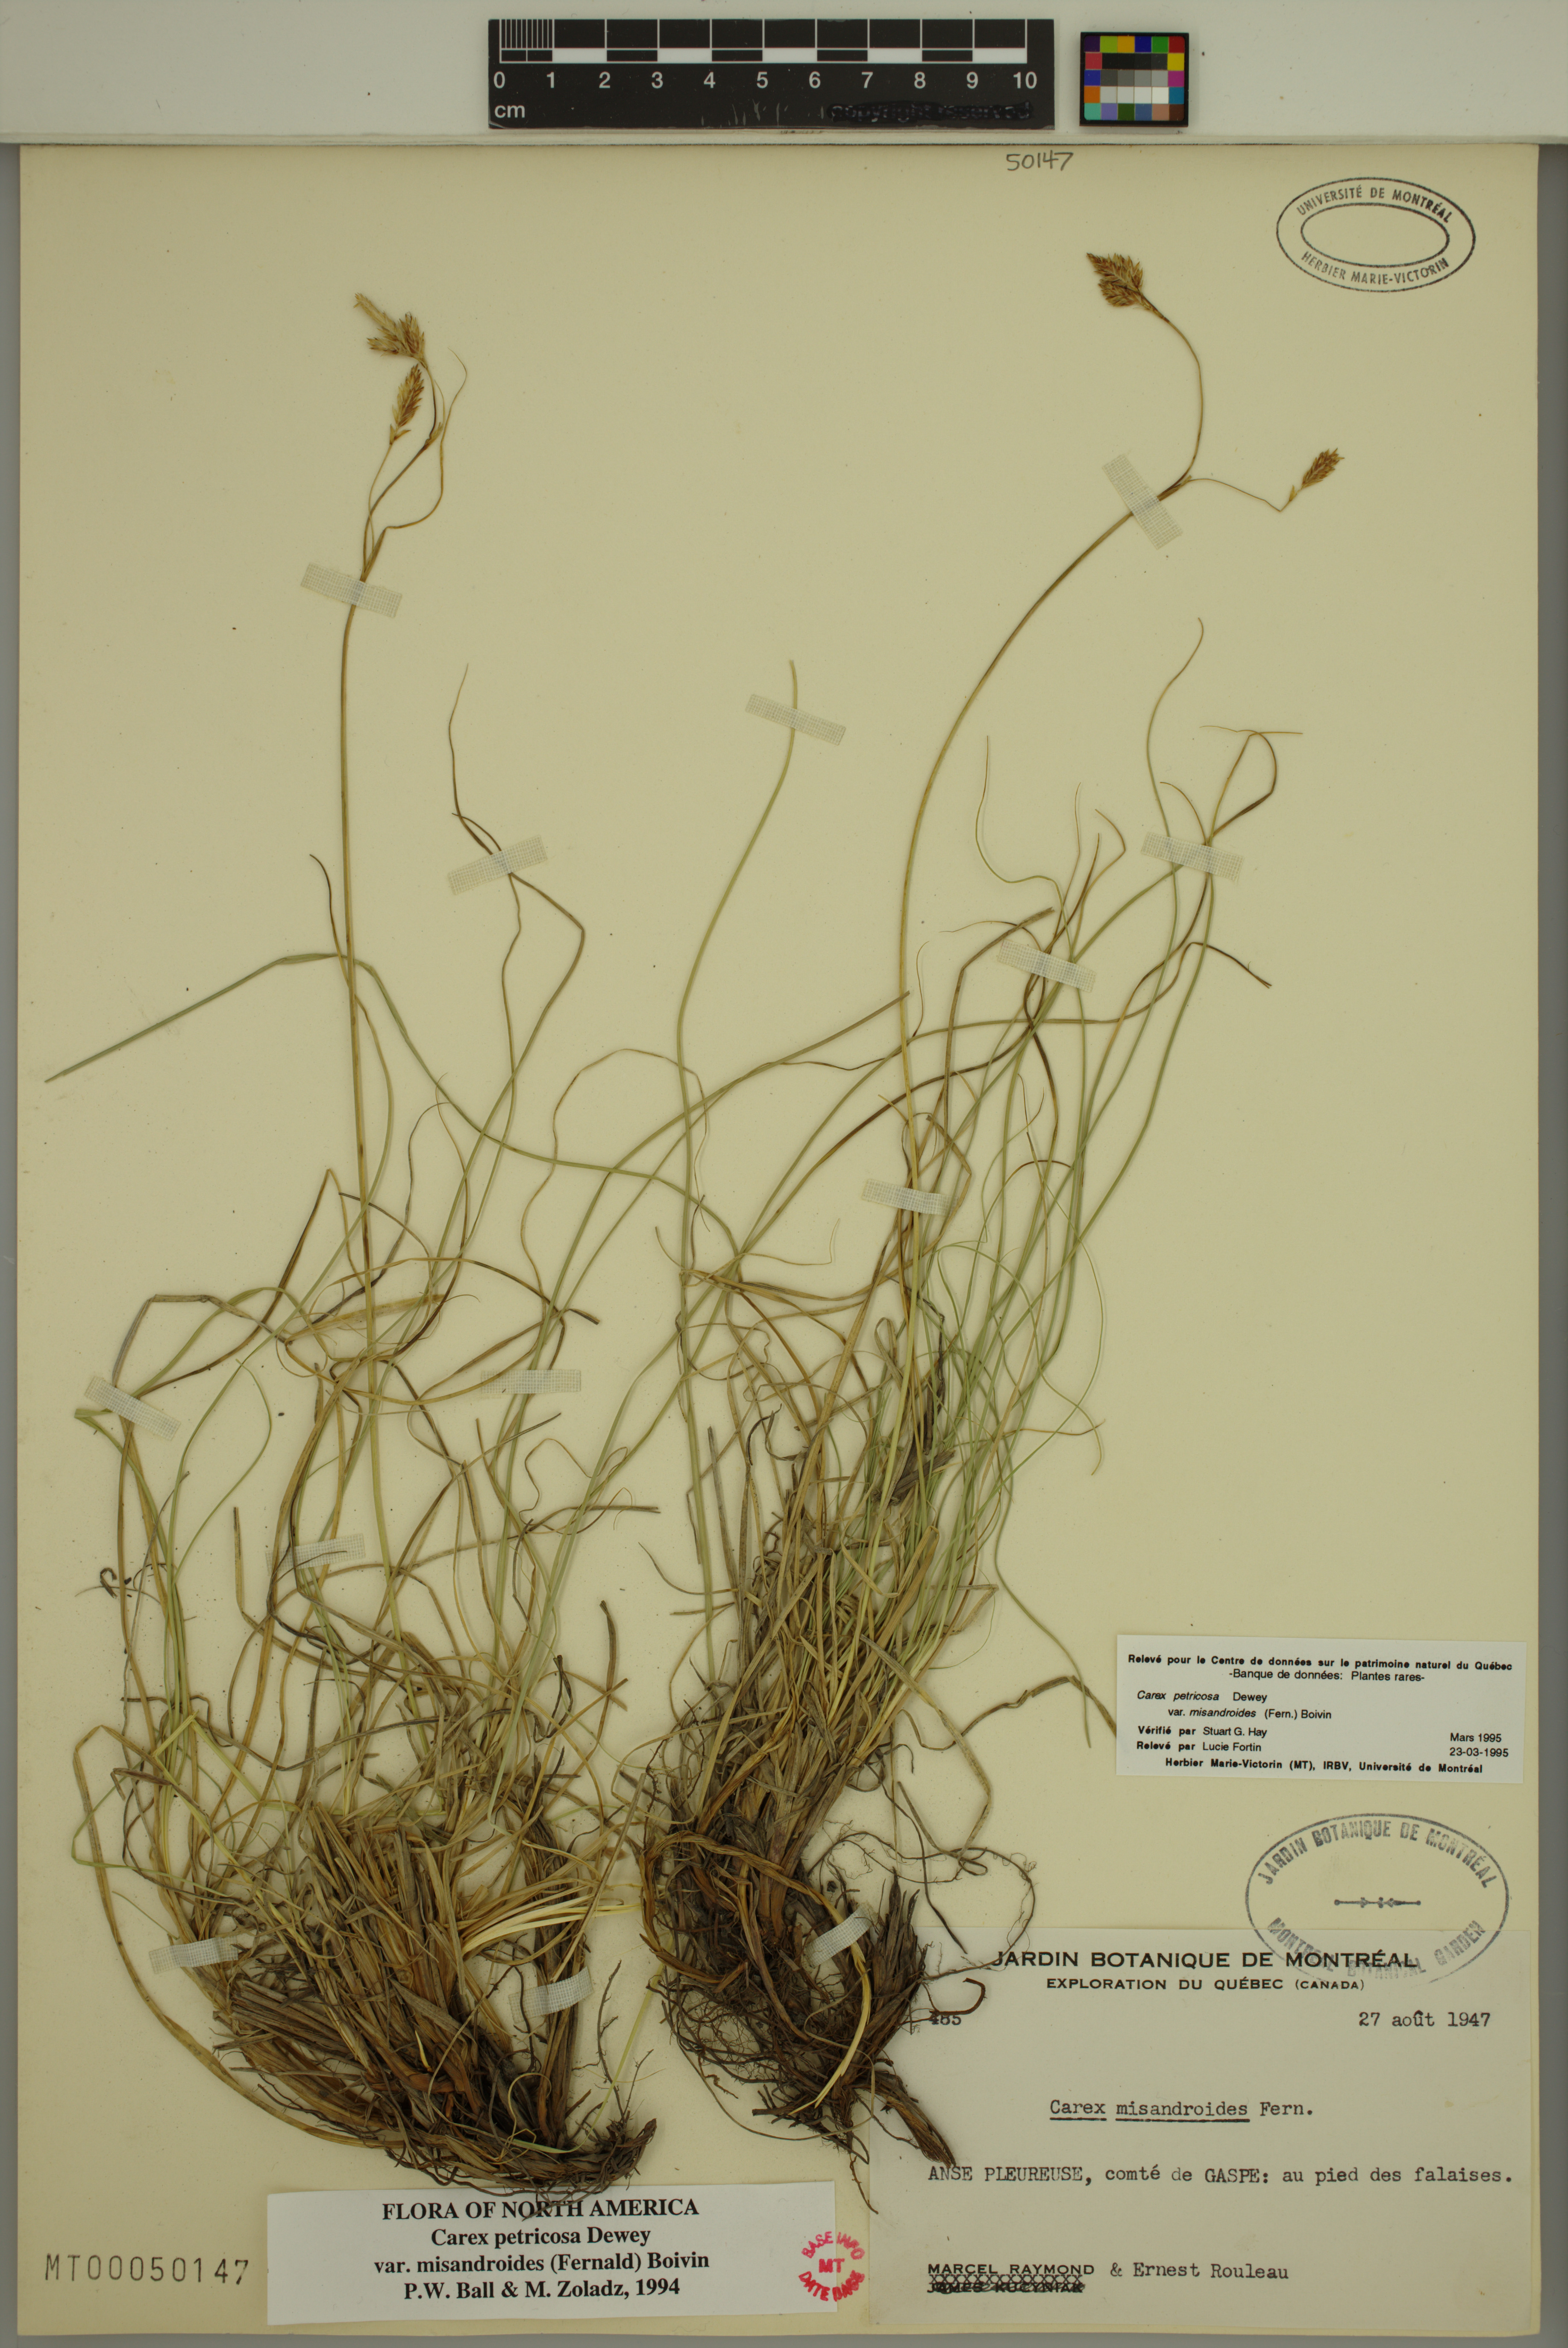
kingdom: Plantae
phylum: Tracheophyta
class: Liliopsida
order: Poales
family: Cyperaceae
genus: Carex
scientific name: Carex petricosa
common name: Rock sedge
